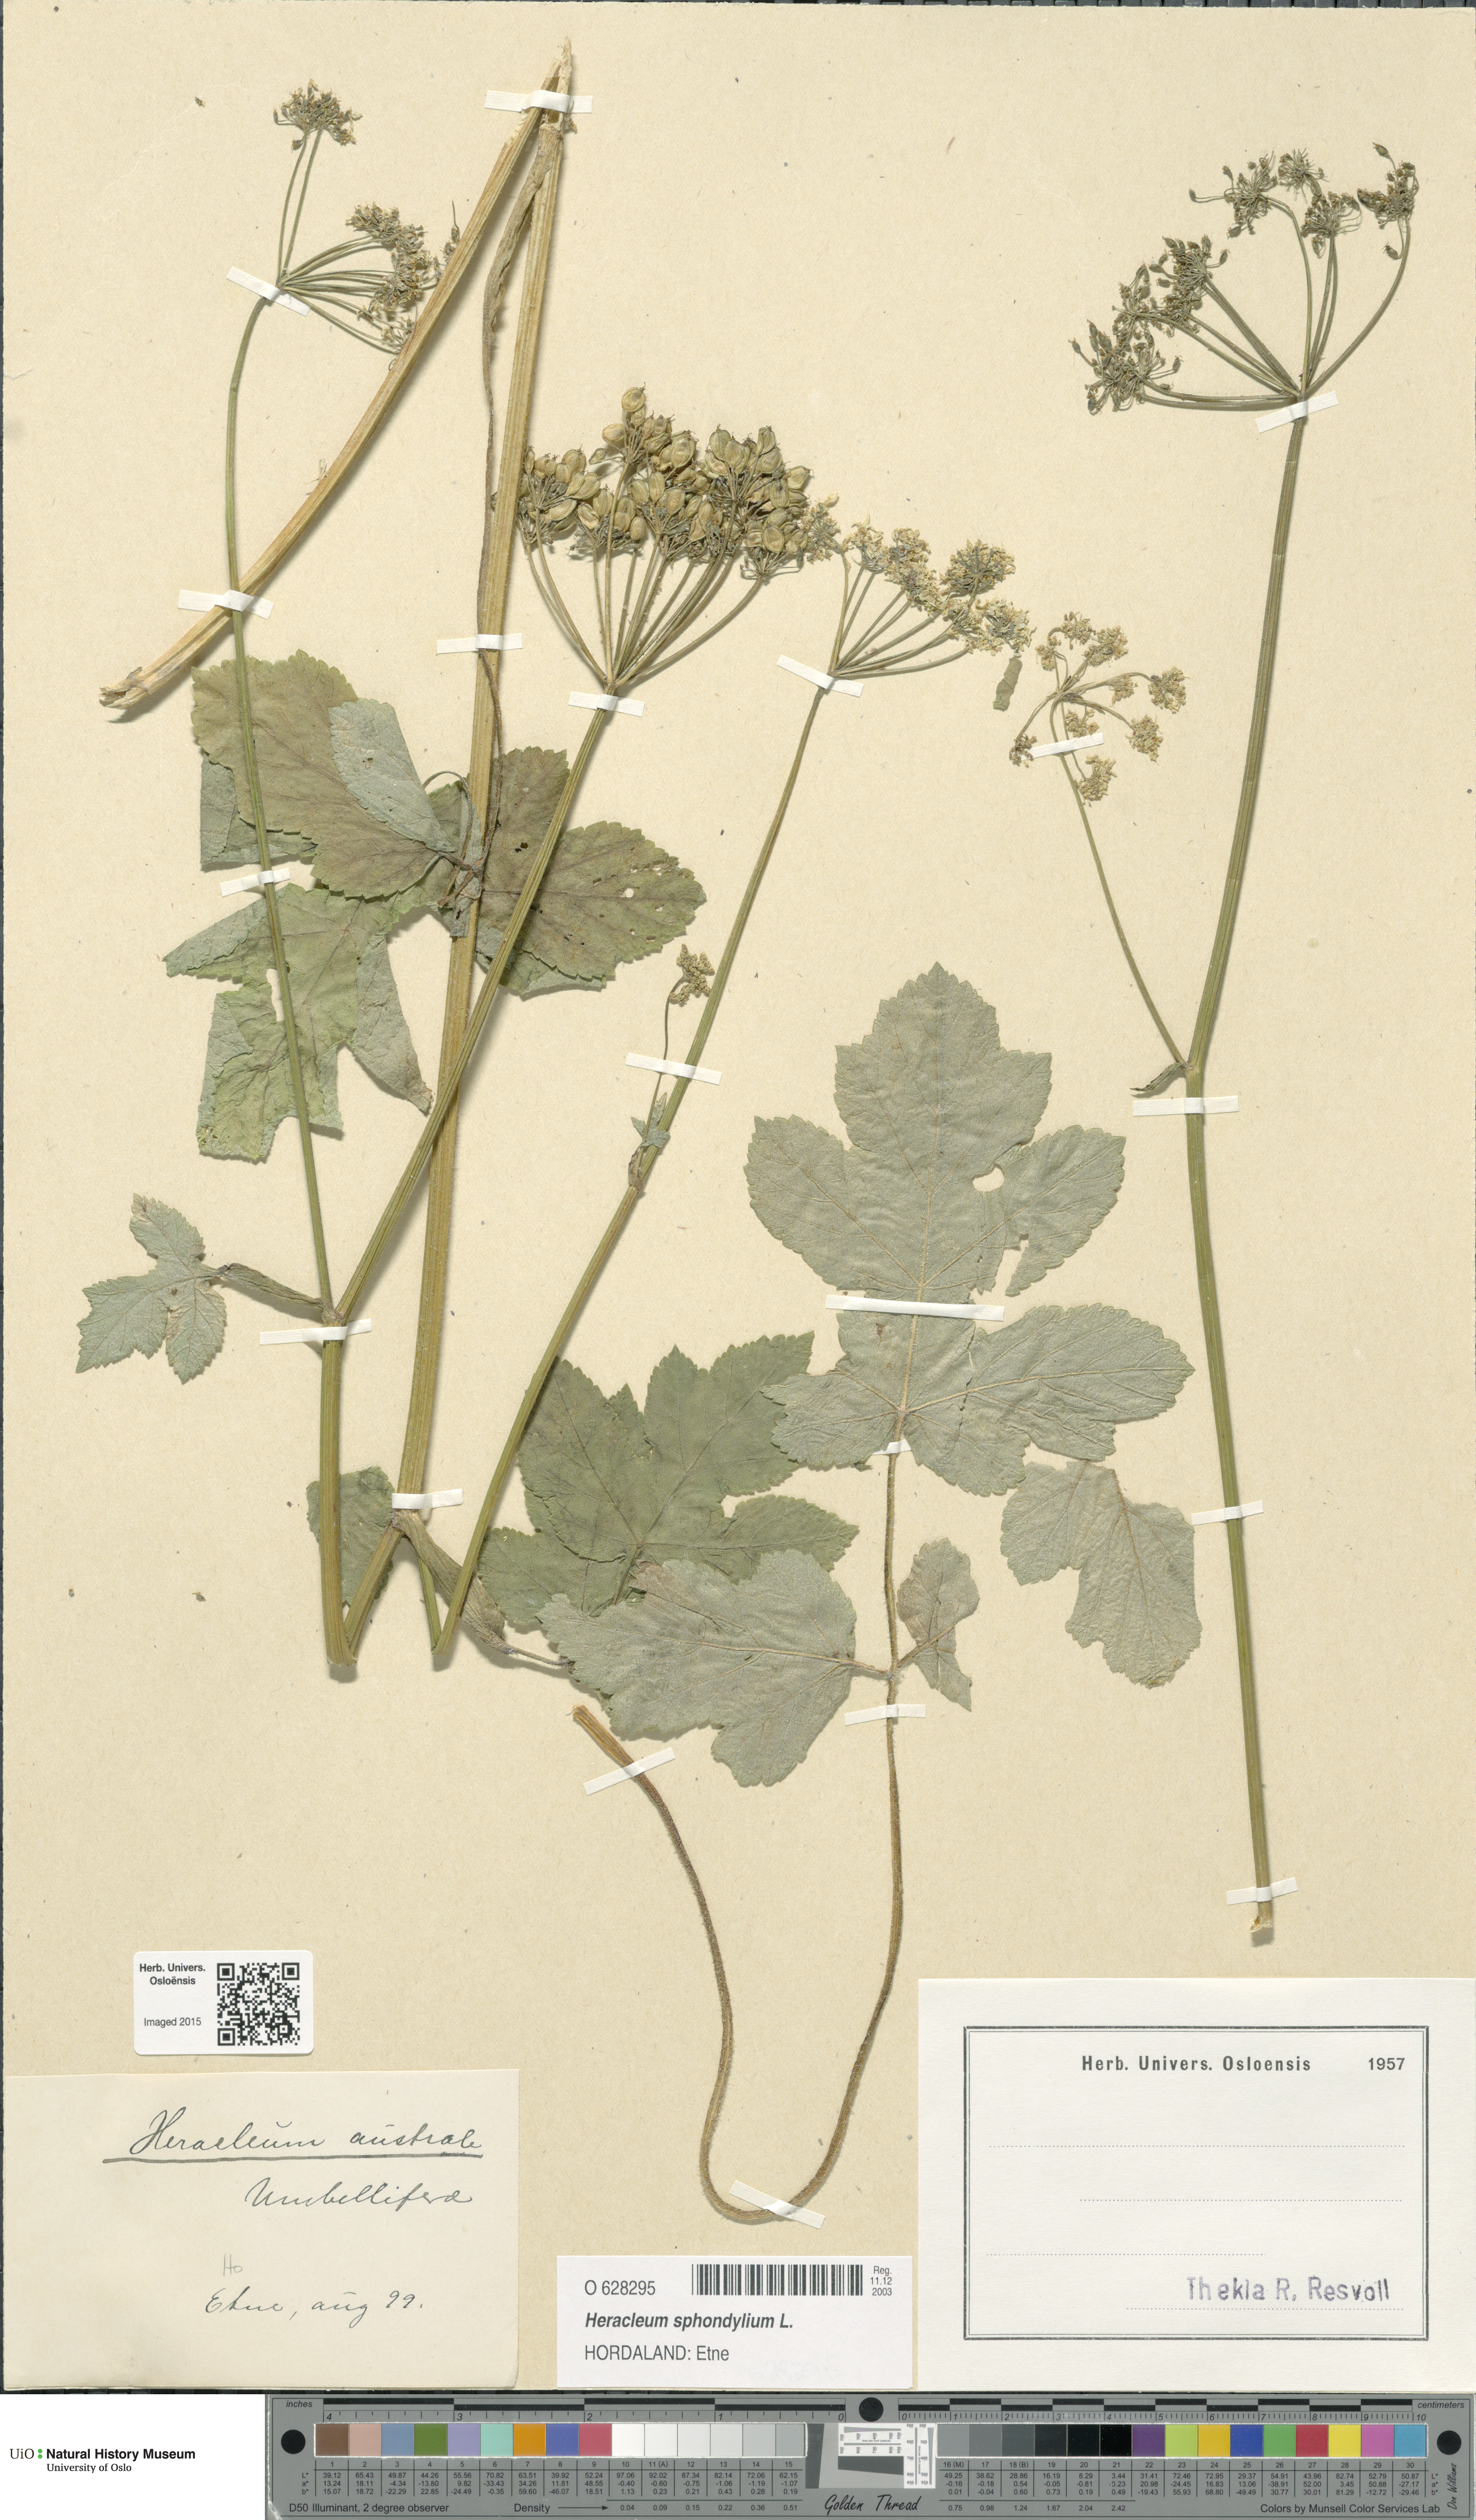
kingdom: Plantae
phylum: Tracheophyta
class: Magnoliopsida
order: Apiales
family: Apiaceae
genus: Heracleum
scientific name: Heracleum sphondylium
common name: Hogweed
